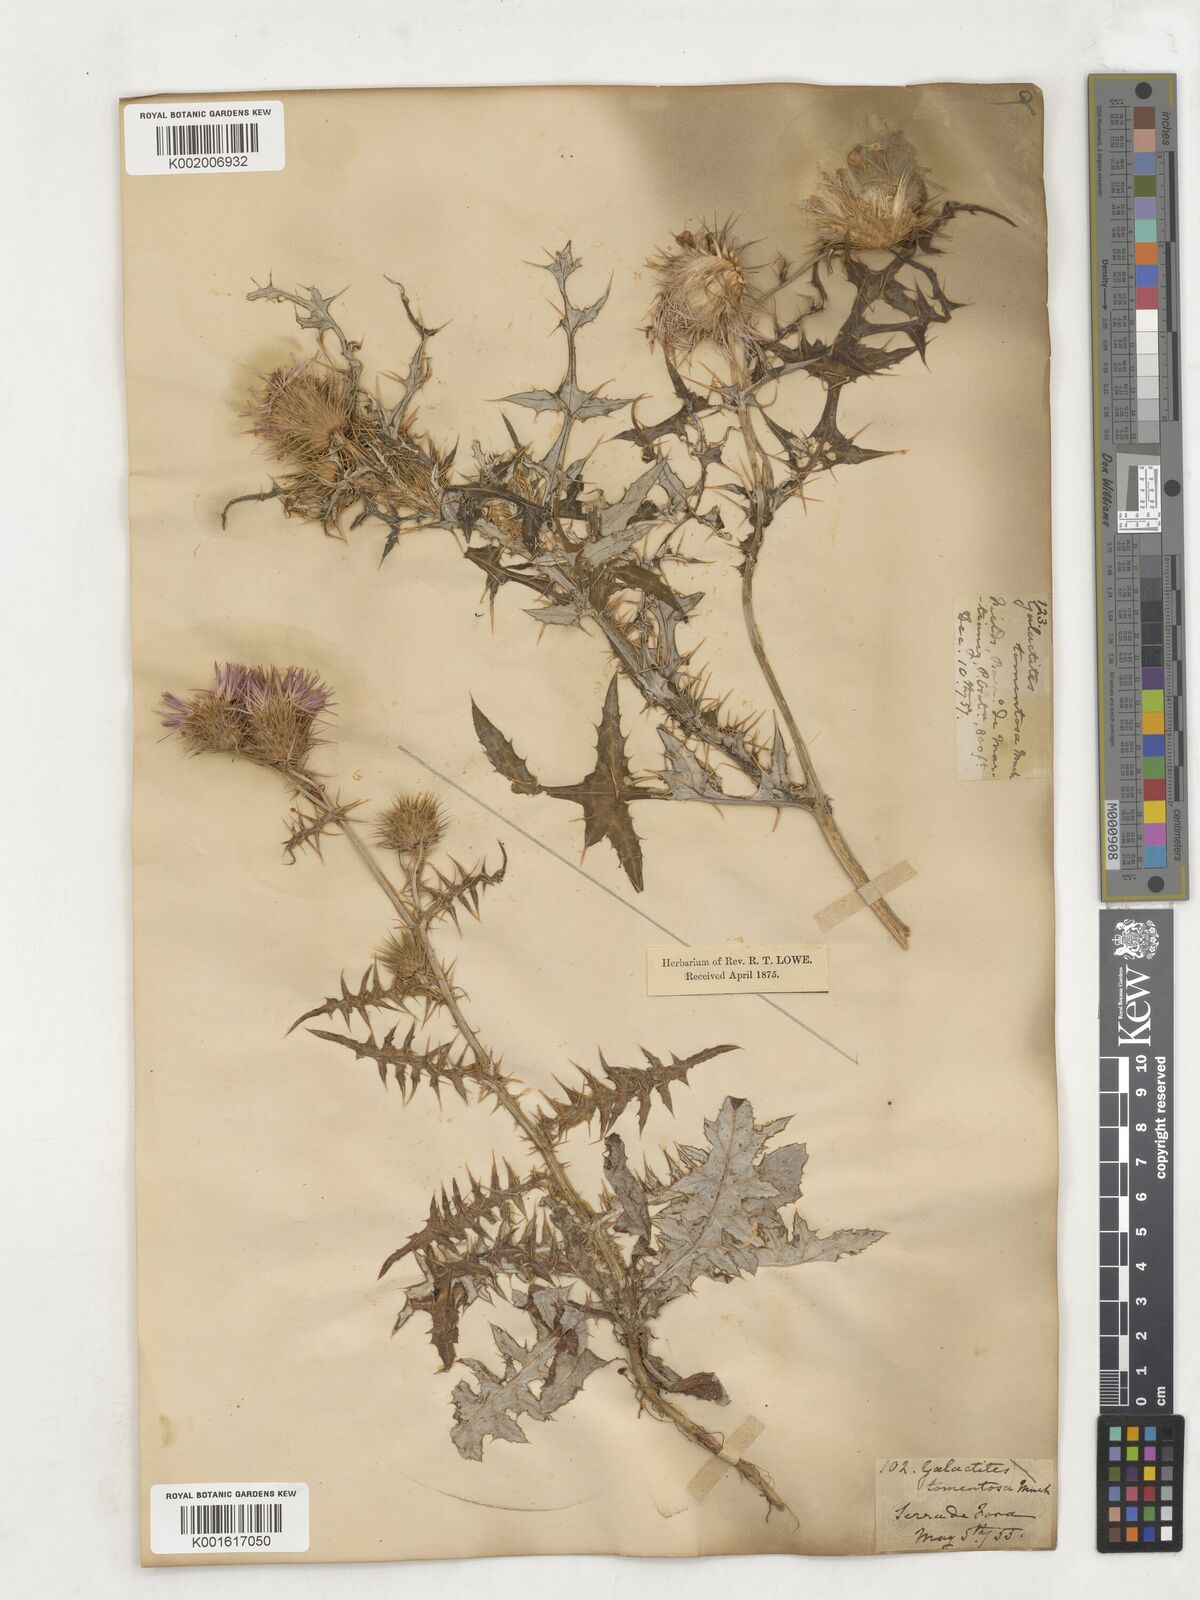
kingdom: Plantae
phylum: Tracheophyta
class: Magnoliopsida
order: Asterales
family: Asteraceae
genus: Galactites
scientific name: Galactites
